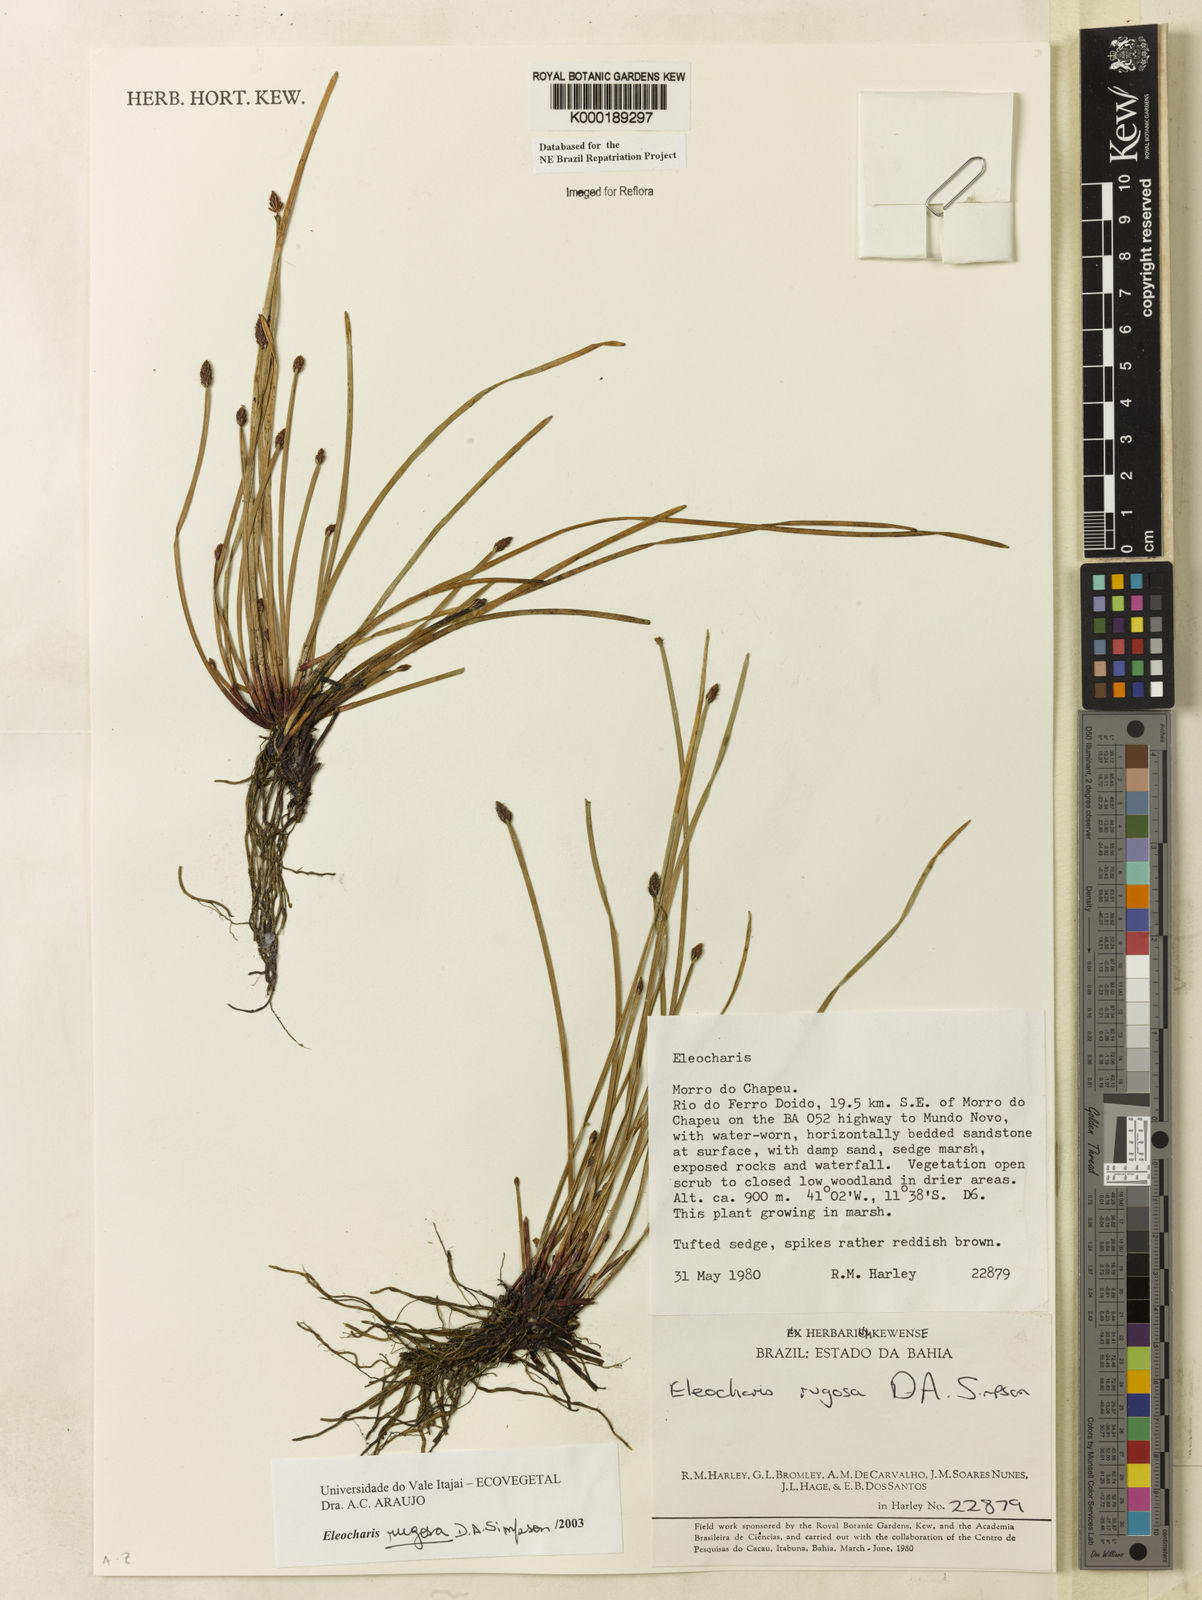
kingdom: Plantae
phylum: Tracheophyta
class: Liliopsida
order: Poales
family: Cyperaceae
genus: Eleocharis
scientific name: Eleocharis rugosa
